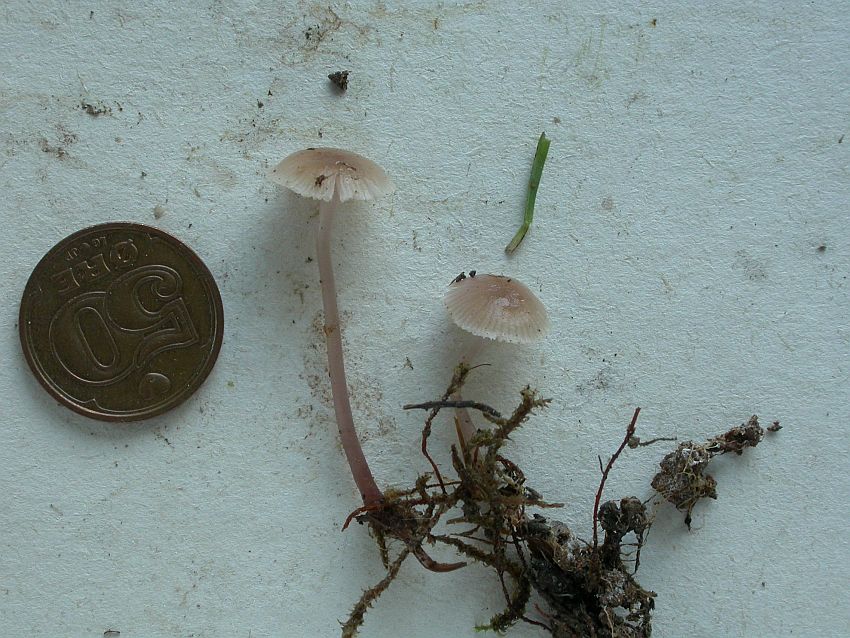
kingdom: Fungi
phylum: Basidiomycota
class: Agaricomycetes
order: Agaricales
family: Mycenaceae
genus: Mycena
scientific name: Mycena pearsoniana
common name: lillabrun huesvamp
